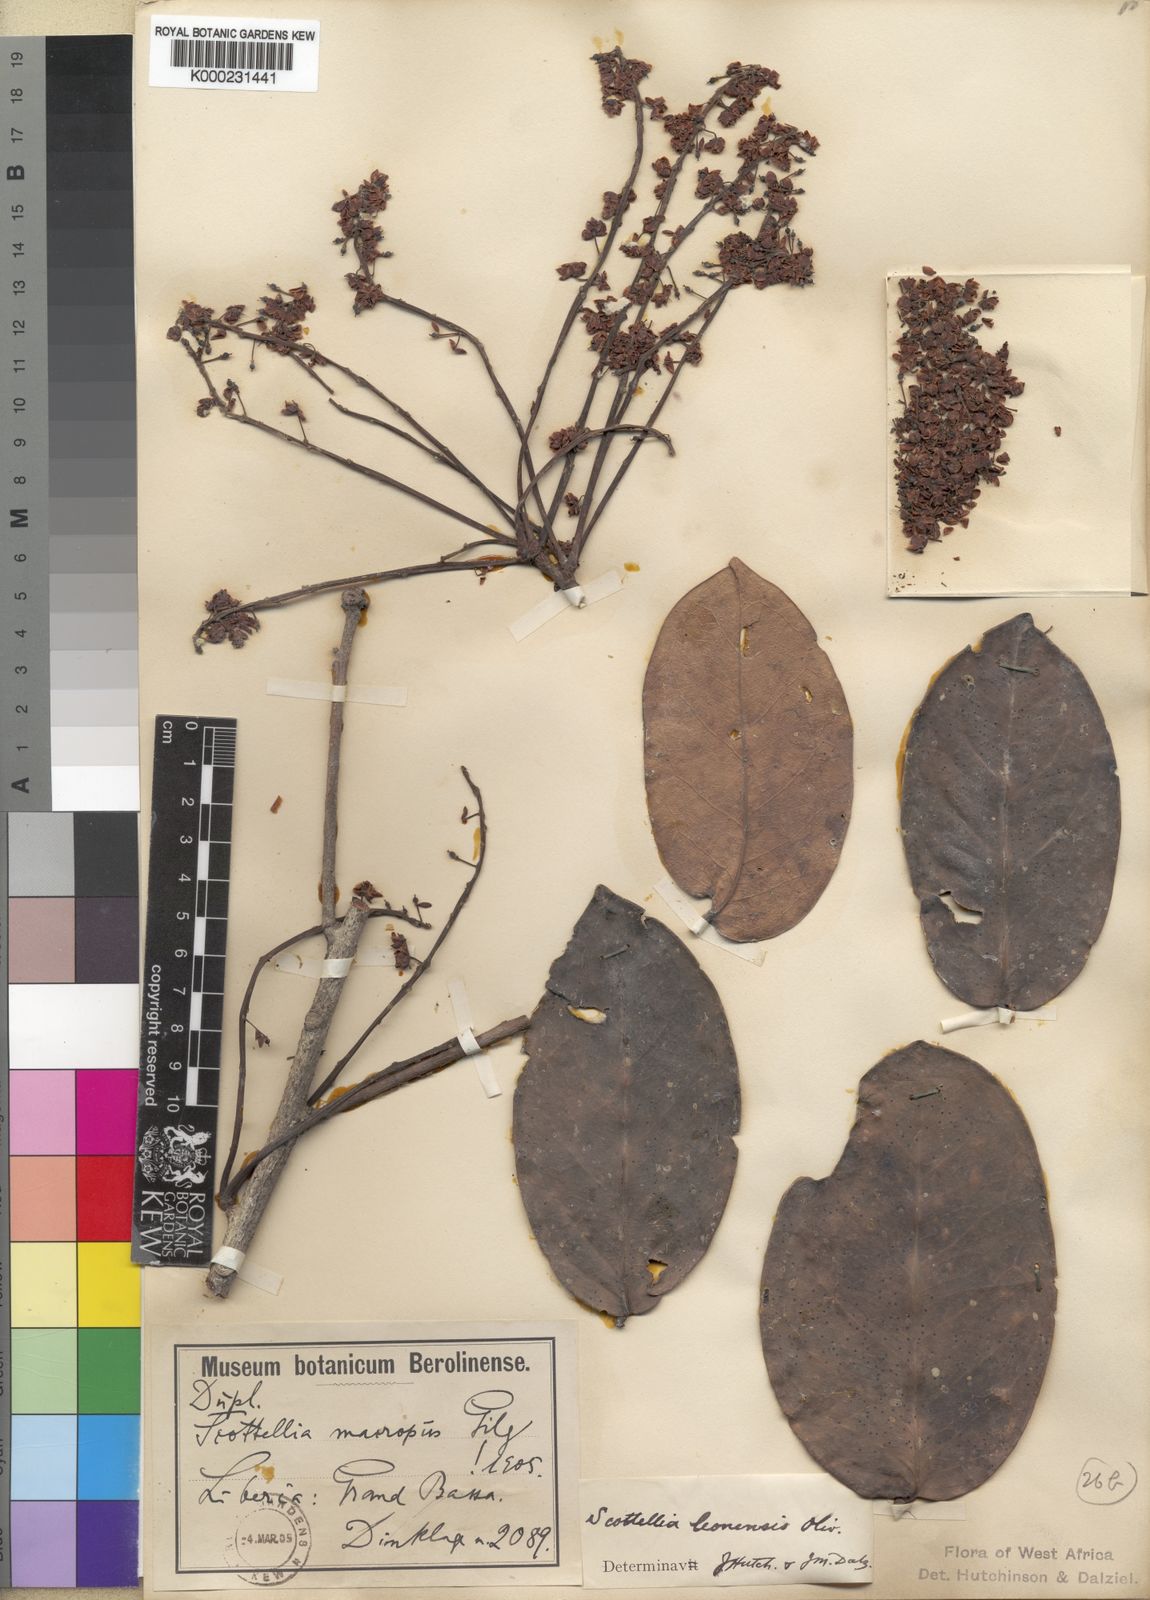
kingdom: Plantae
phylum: Tracheophyta
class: Magnoliopsida
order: Malpighiales
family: Achariaceae
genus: Scottellia
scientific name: Scottellia leonensis
